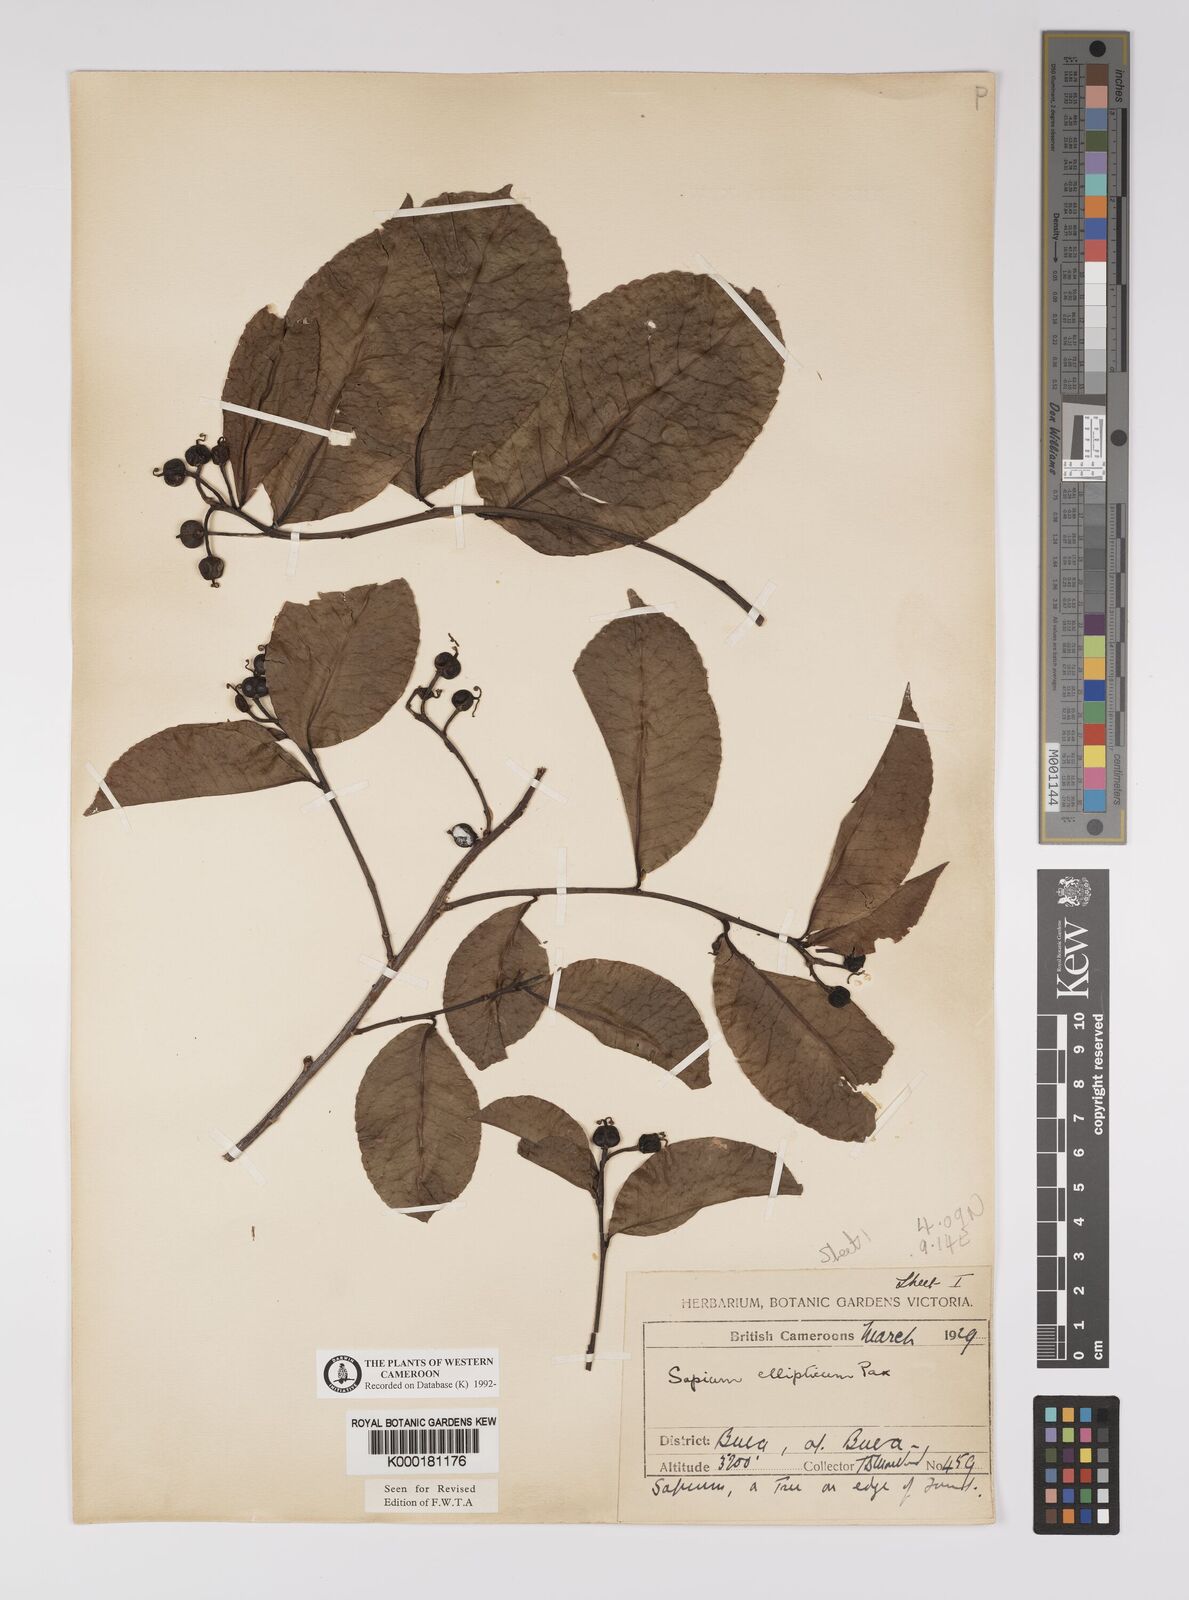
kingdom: Plantae
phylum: Tracheophyta
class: Magnoliopsida
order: Malpighiales
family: Euphorbiaceae
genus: Shirakiopsis
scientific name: Shirakiopsis elliptica
